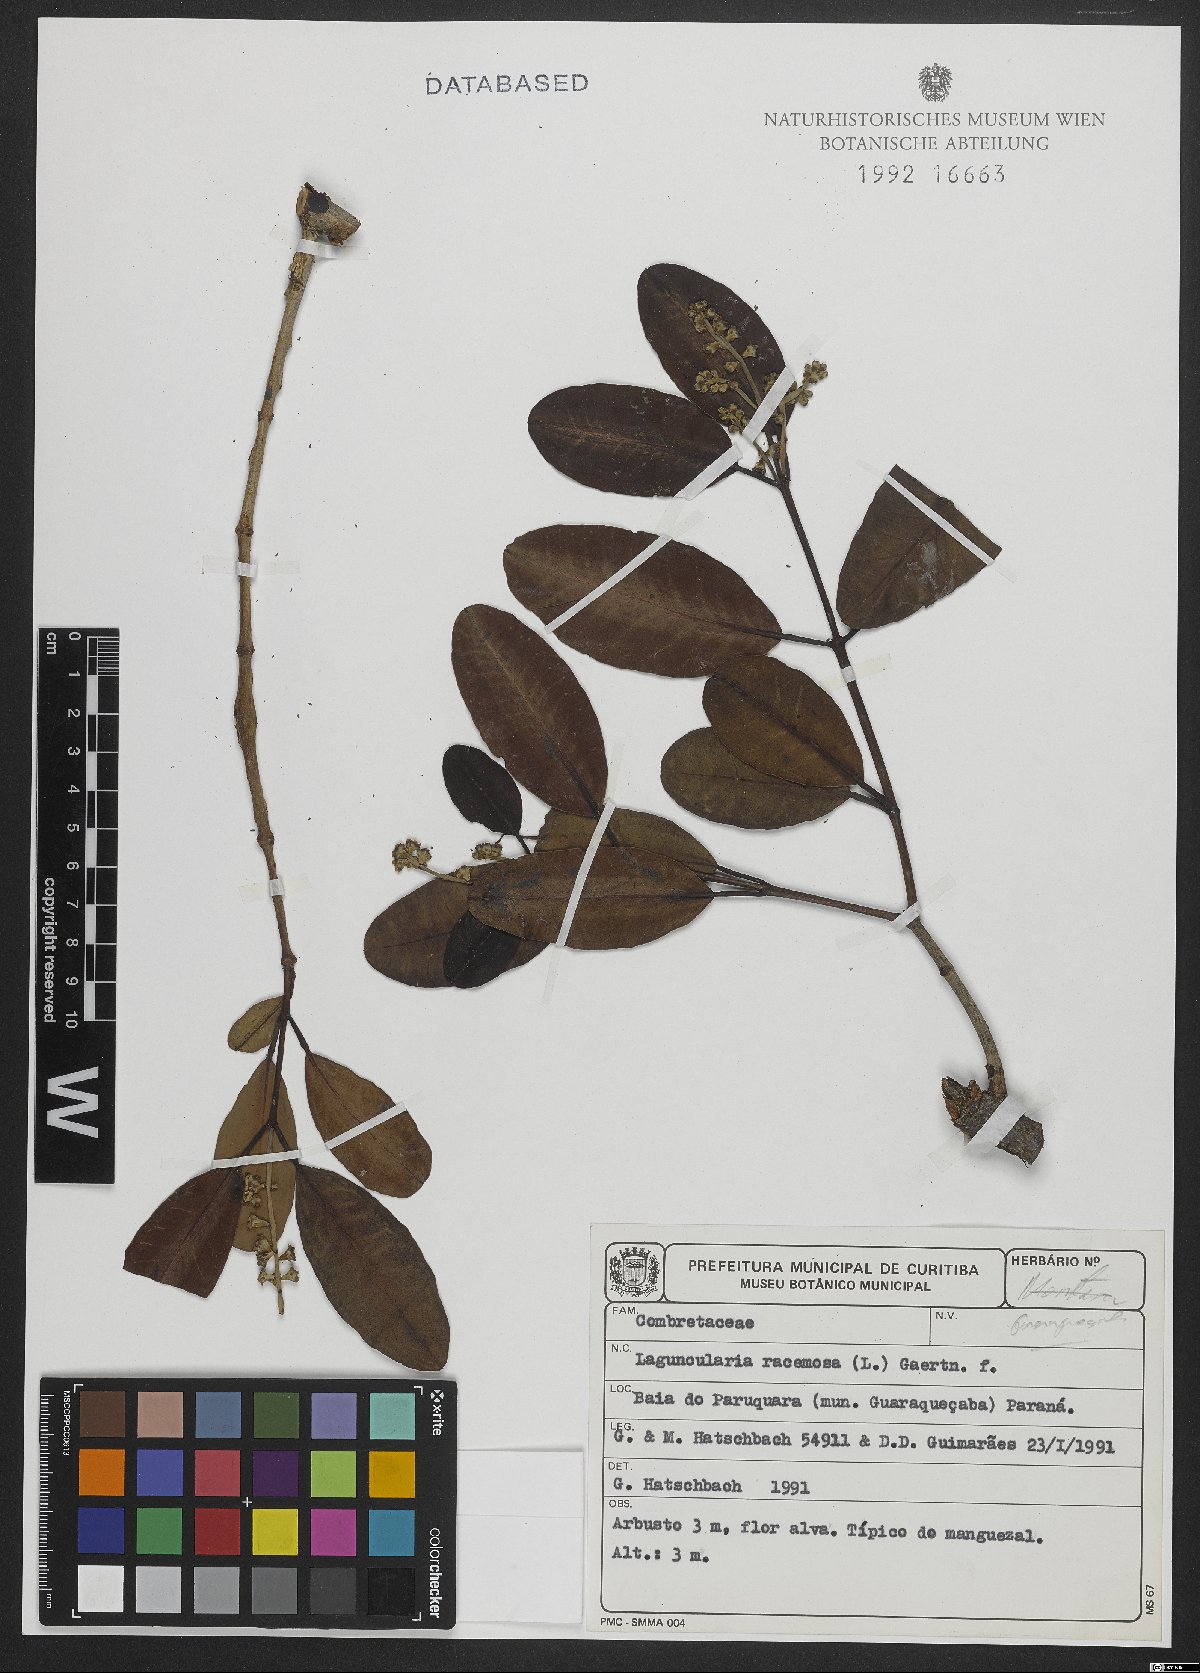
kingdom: Plantae
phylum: Tracheophyta
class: Magnoliopsida
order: Myrtales
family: Combretaceae
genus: Laguncularia
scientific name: Laguncularia racemosa
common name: White mangrove
